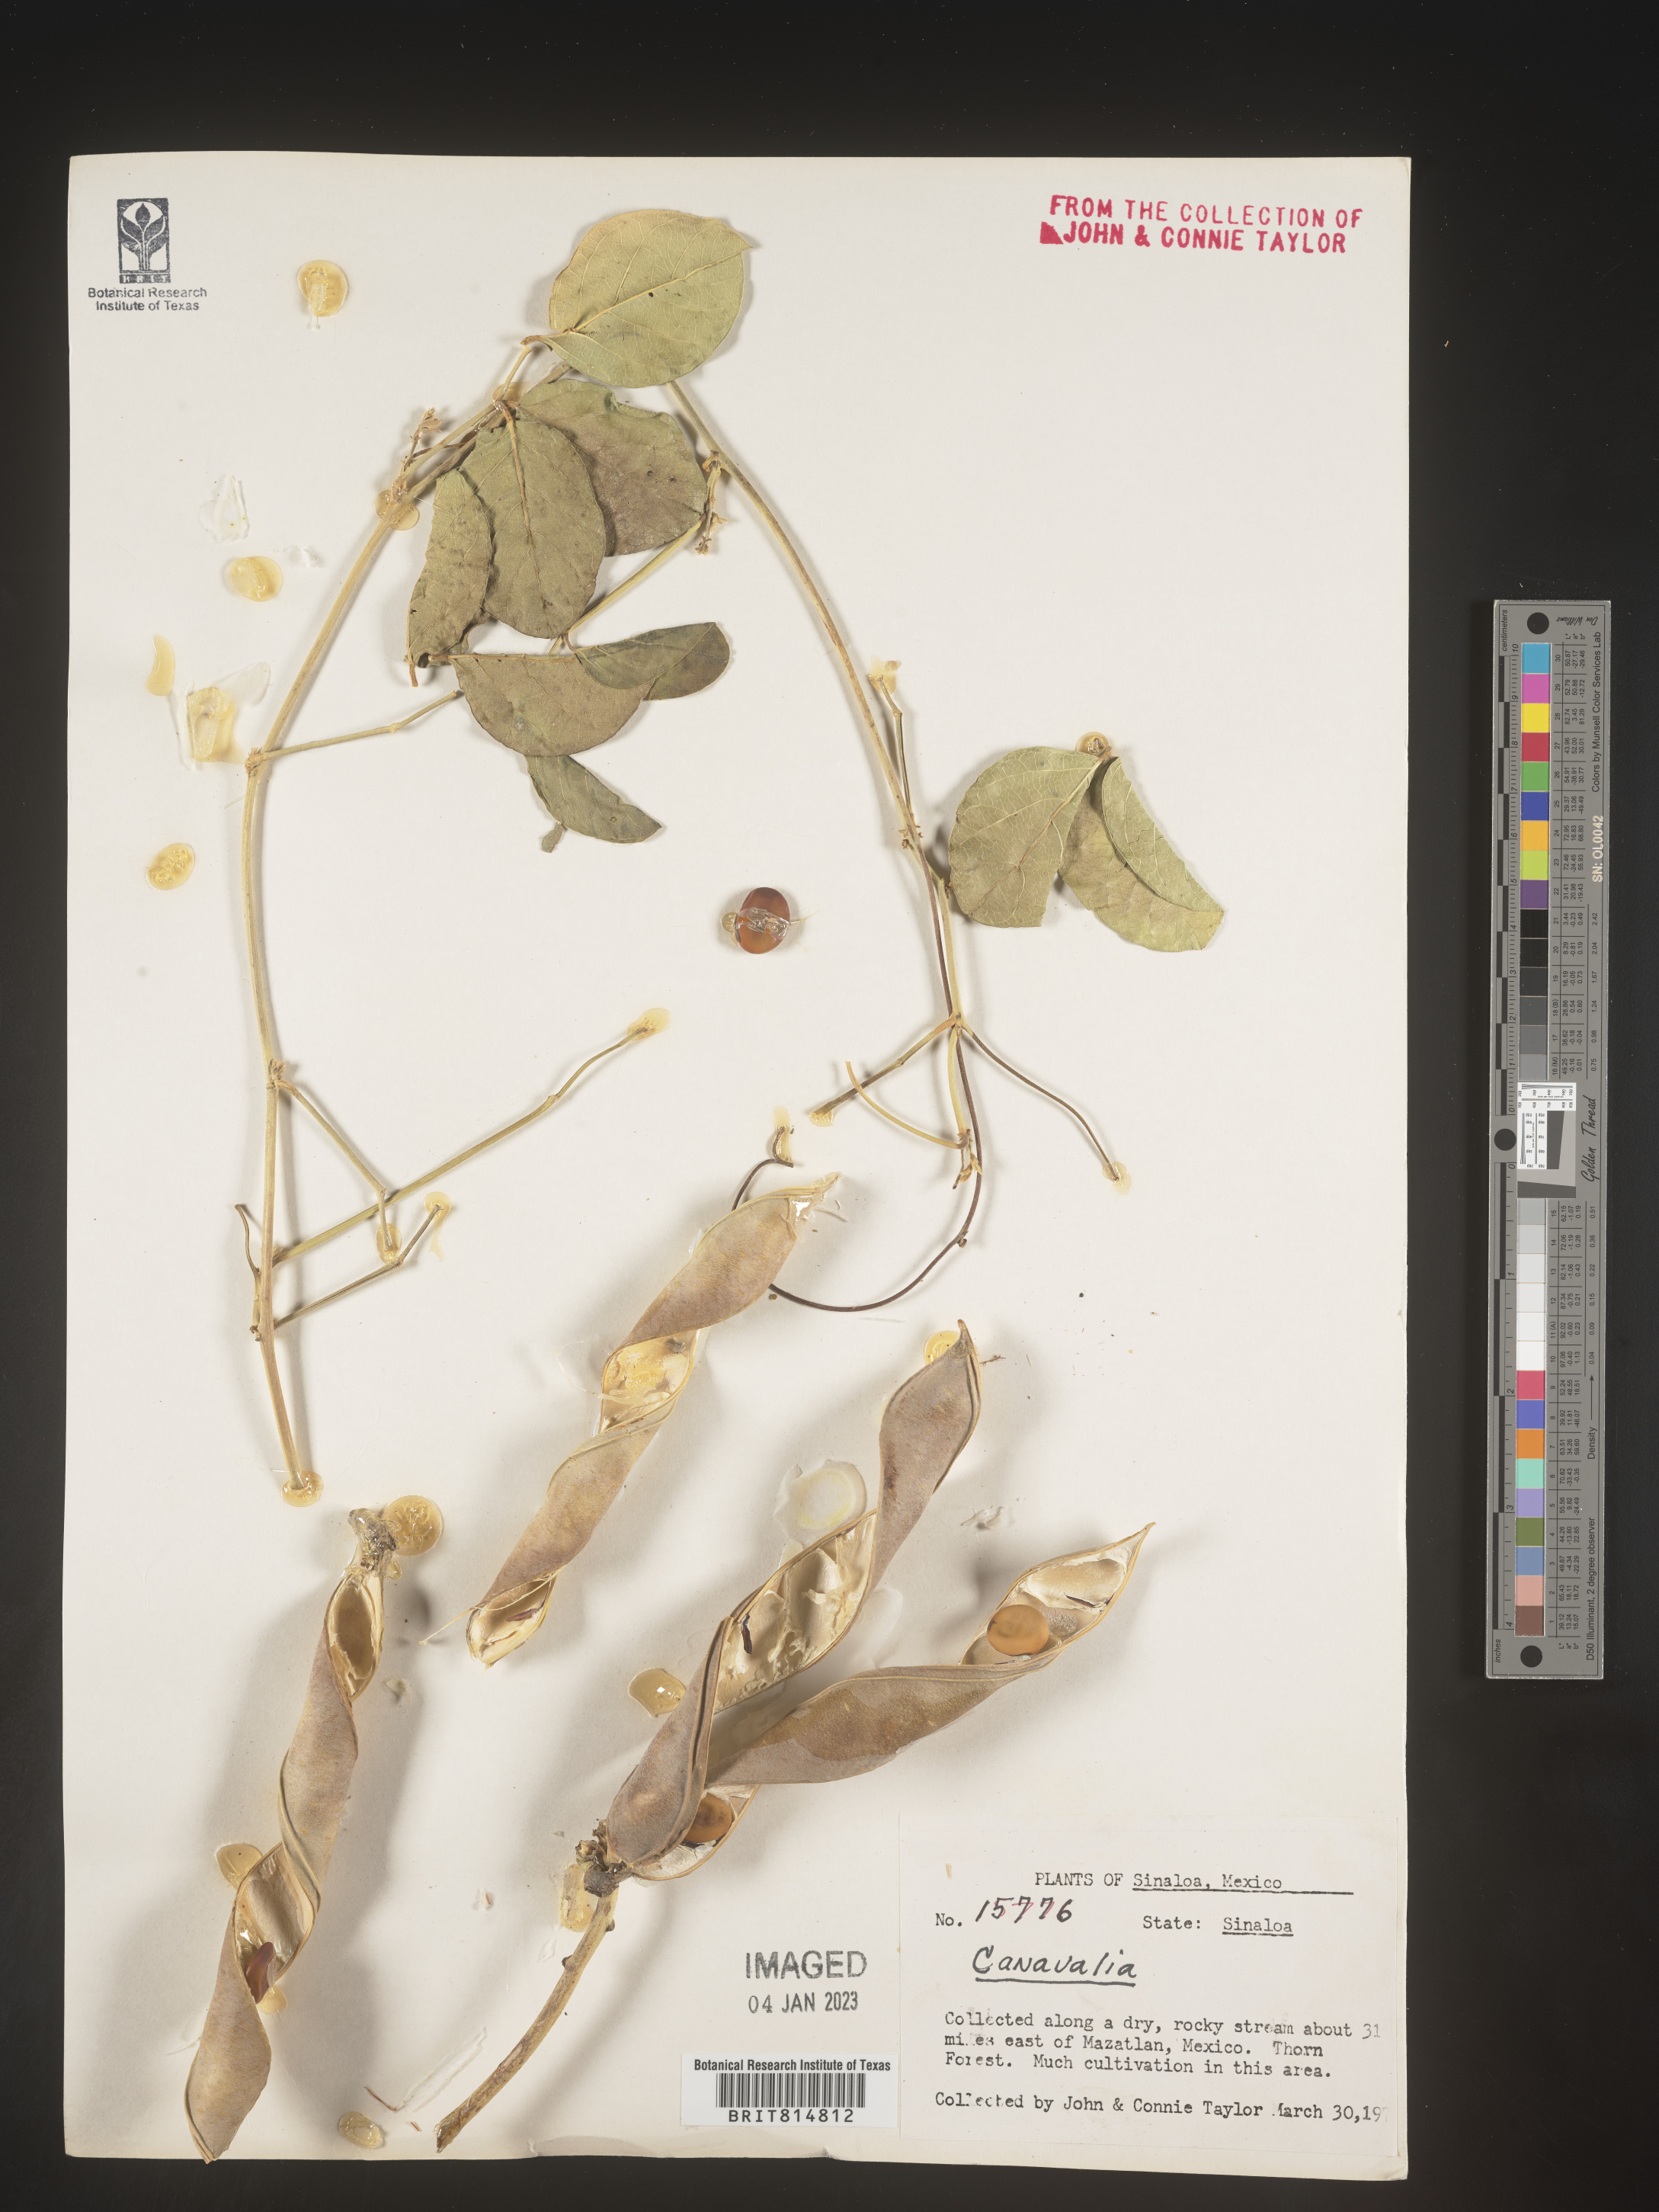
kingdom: Plantae
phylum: Tracheophyta
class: Magnoliopsida
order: Fabales
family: Fabaceae
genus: Canavalia
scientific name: Canavalia
